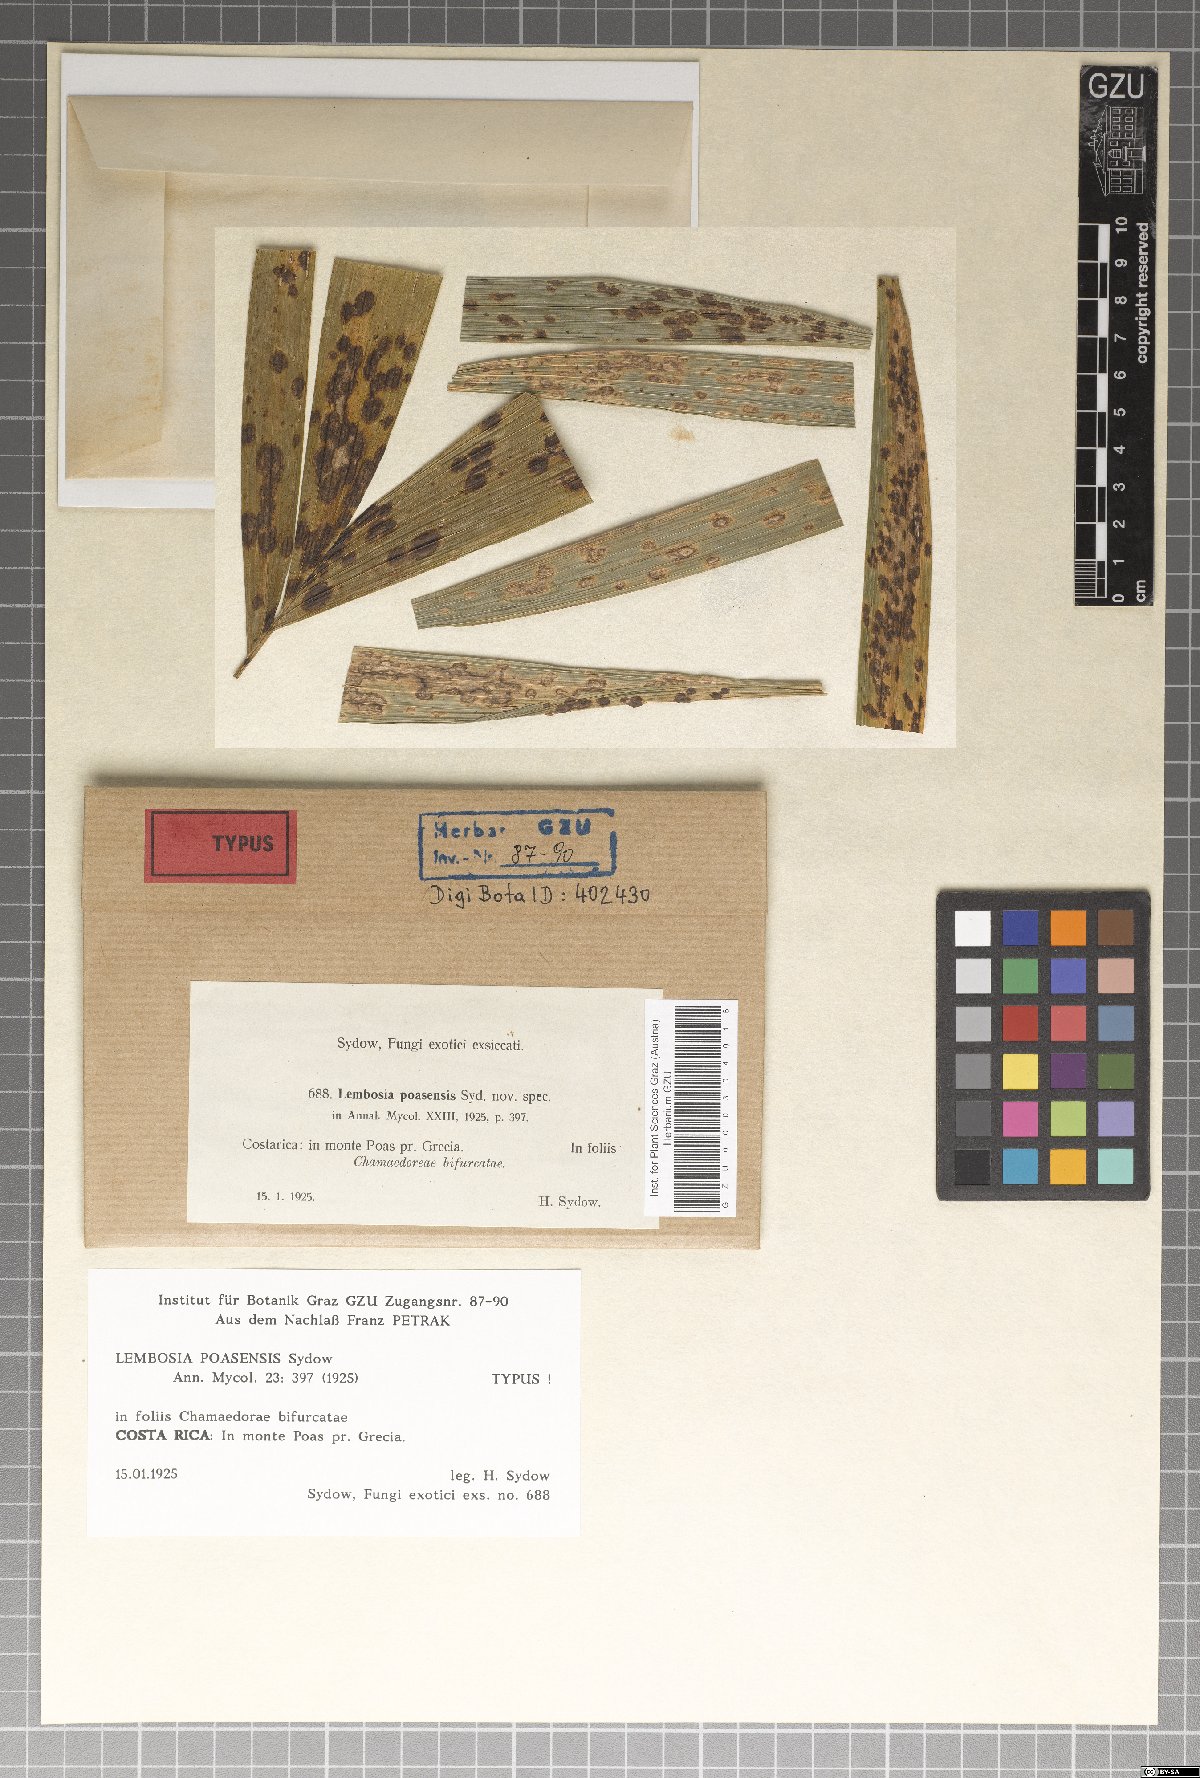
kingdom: Fungi
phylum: Ascomycota
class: Dothideomycetes
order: Asterinales
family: Asterinaceae
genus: Lembosia
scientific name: Lembosia poasensis
